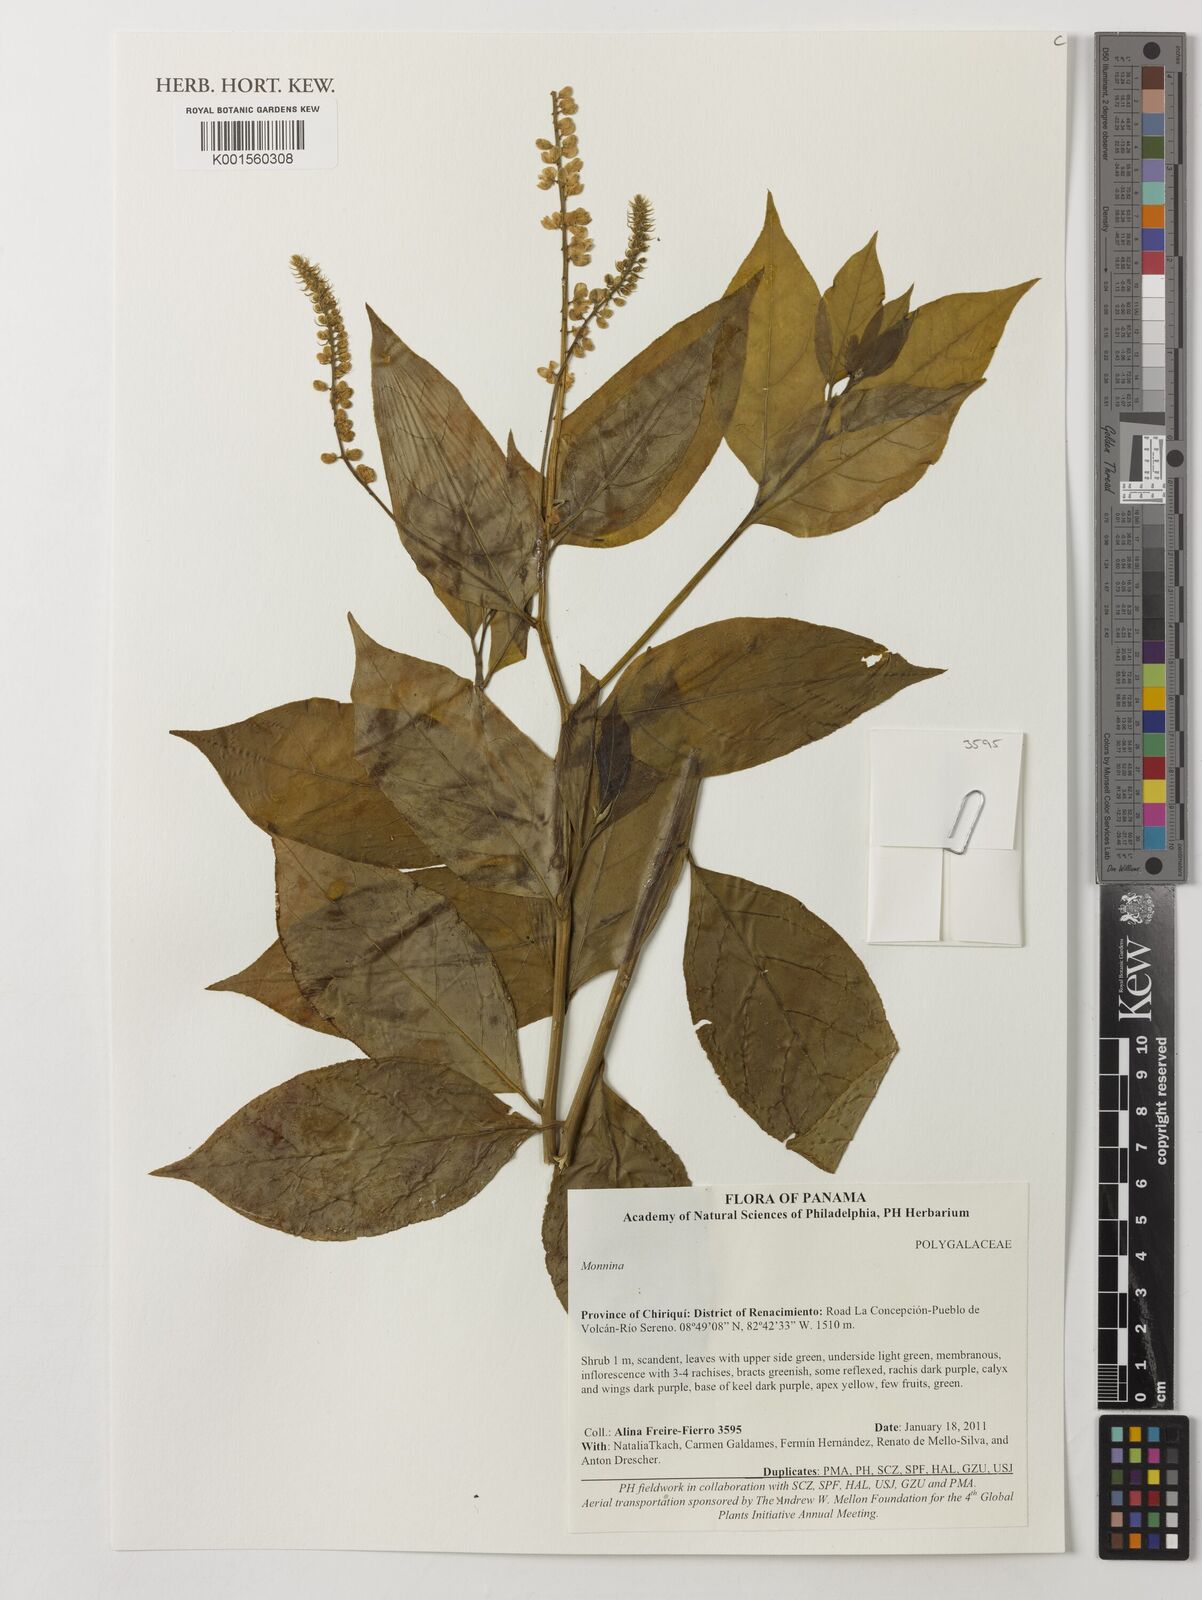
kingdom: Plantae
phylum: Tracheophyta
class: Magnoliopsida
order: Fabales
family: Polygalaceae
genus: Monnina
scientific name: Monnina
